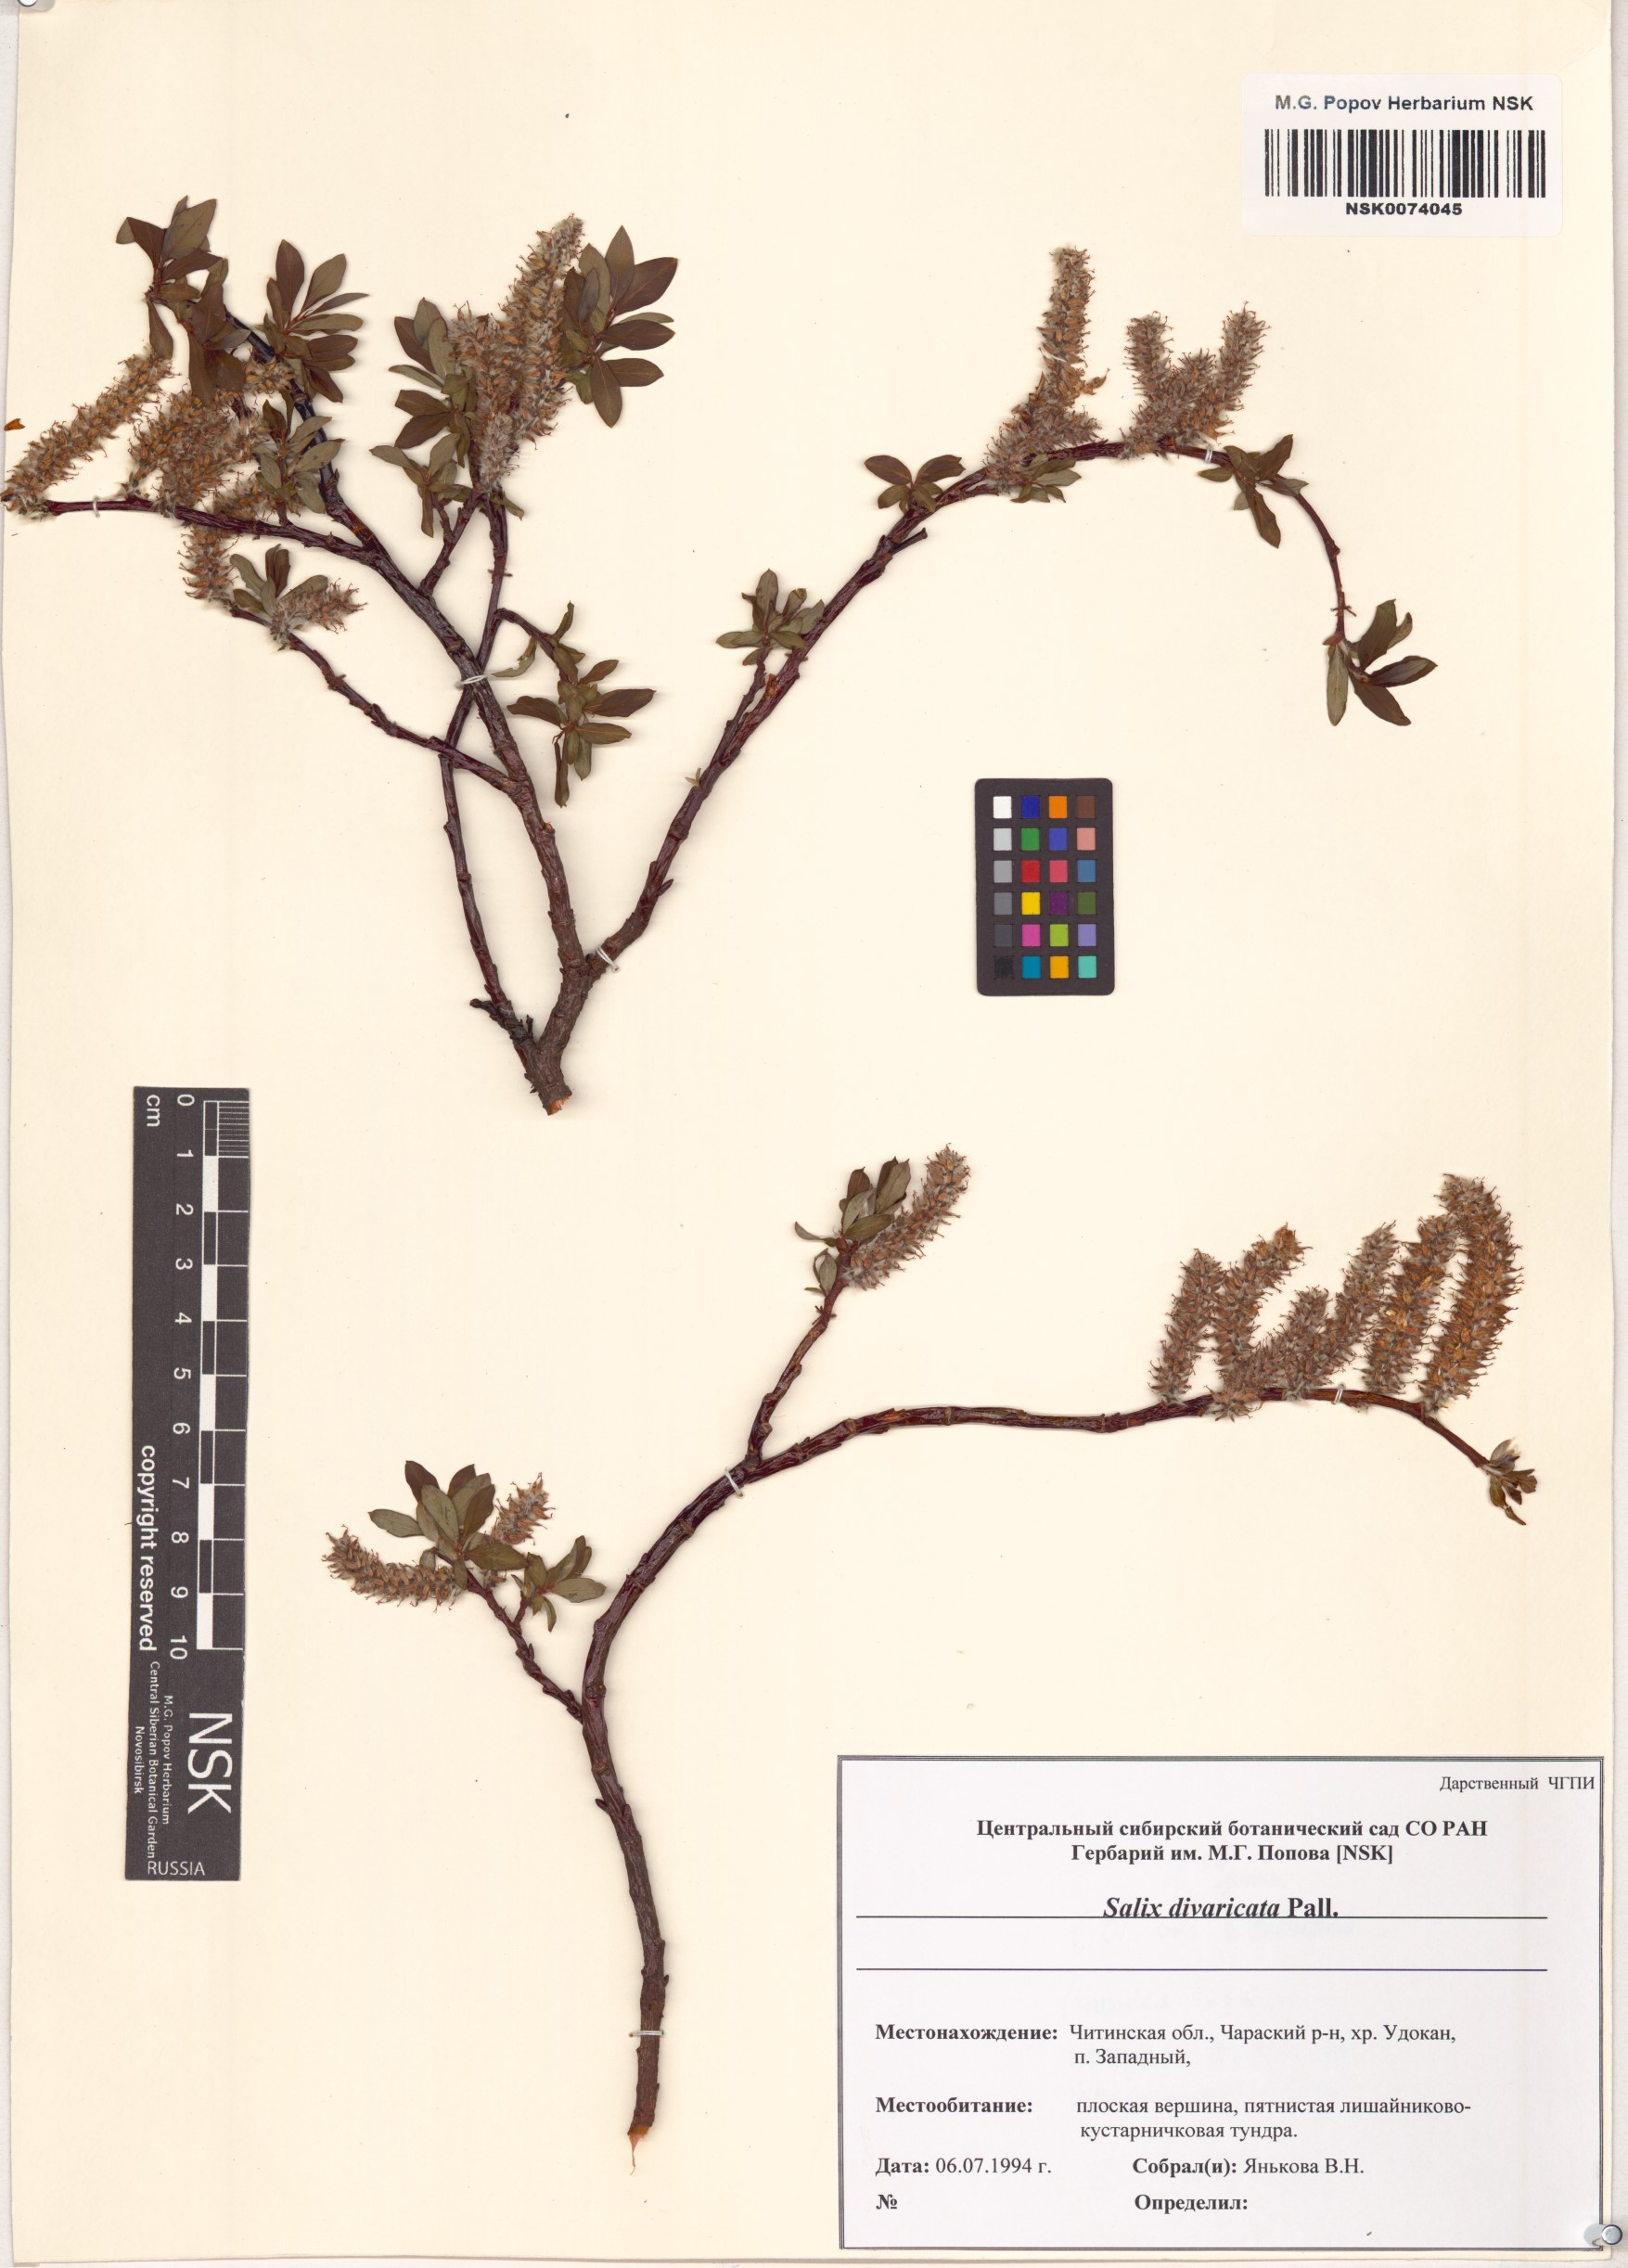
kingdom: Plantae
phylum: Tracheophyta
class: Magnoliopsida
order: Malpighiales
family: Salicaceae
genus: Salix
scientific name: Salix divaricata
